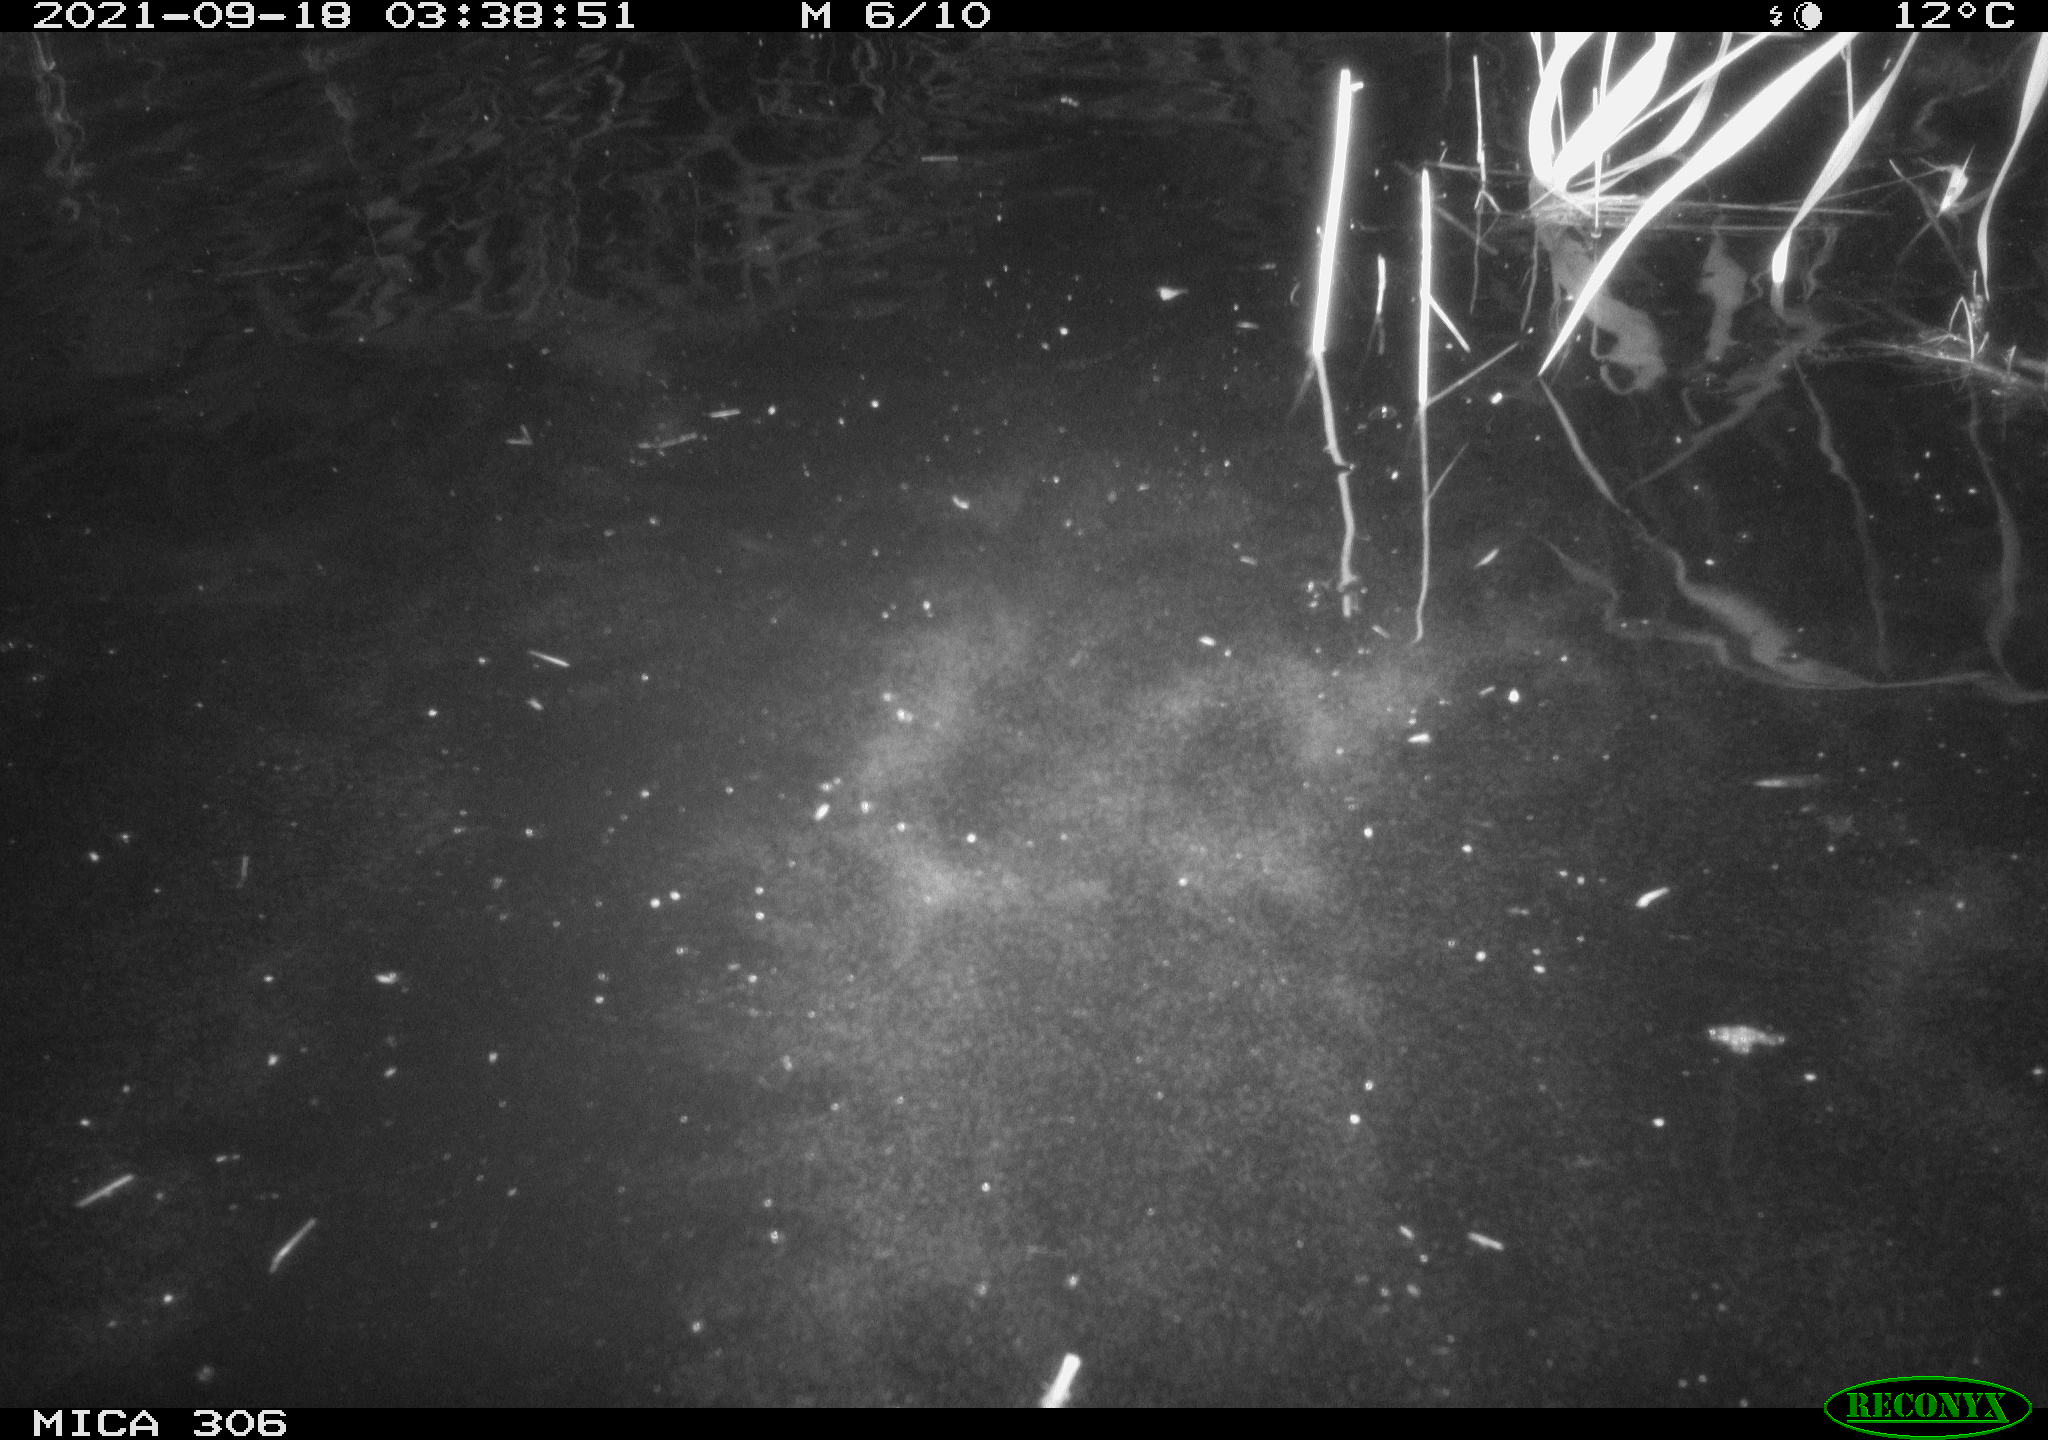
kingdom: Animalia
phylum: Chordata
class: Mammalia
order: Rodentia
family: Cricetidae
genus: Ondatra
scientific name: Ondatra zibethicus
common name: Muskrat
